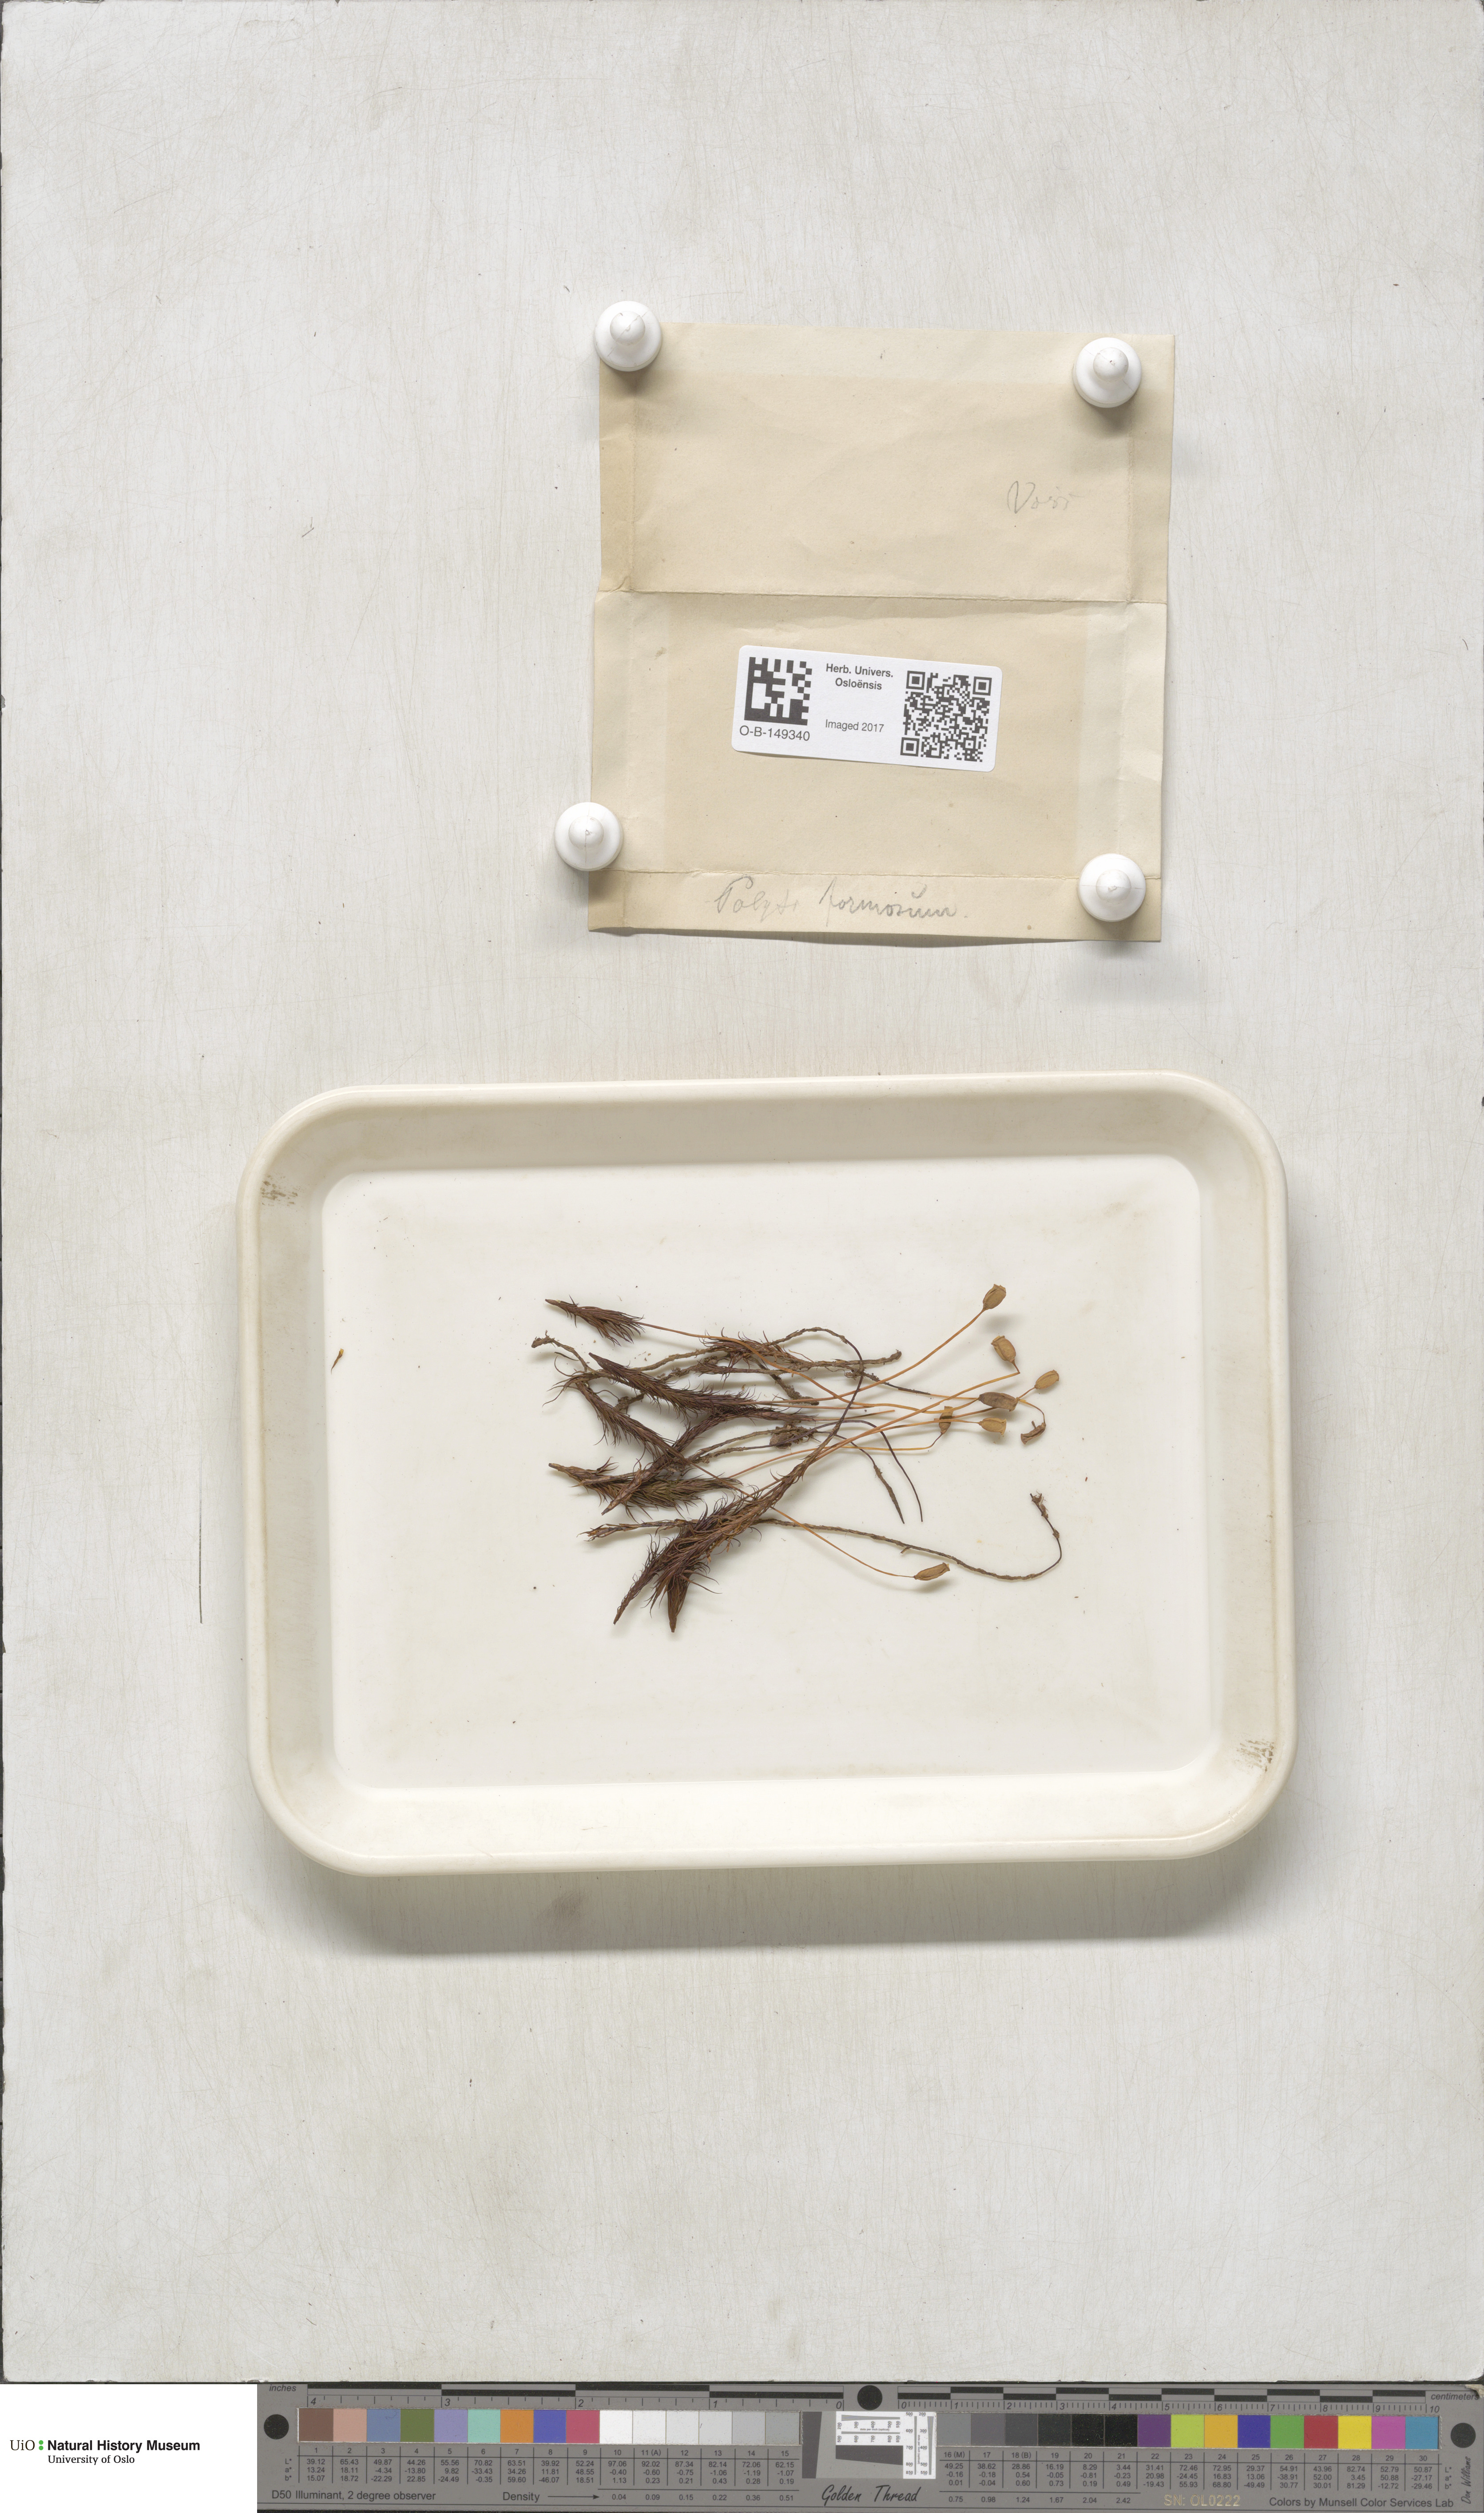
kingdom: Plantae
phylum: Bryophyta
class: Polytrichopsida
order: Polytrichales
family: Polytrichaceae
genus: Polytrichum
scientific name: Polytrichum formosum
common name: Bank haircap moss
